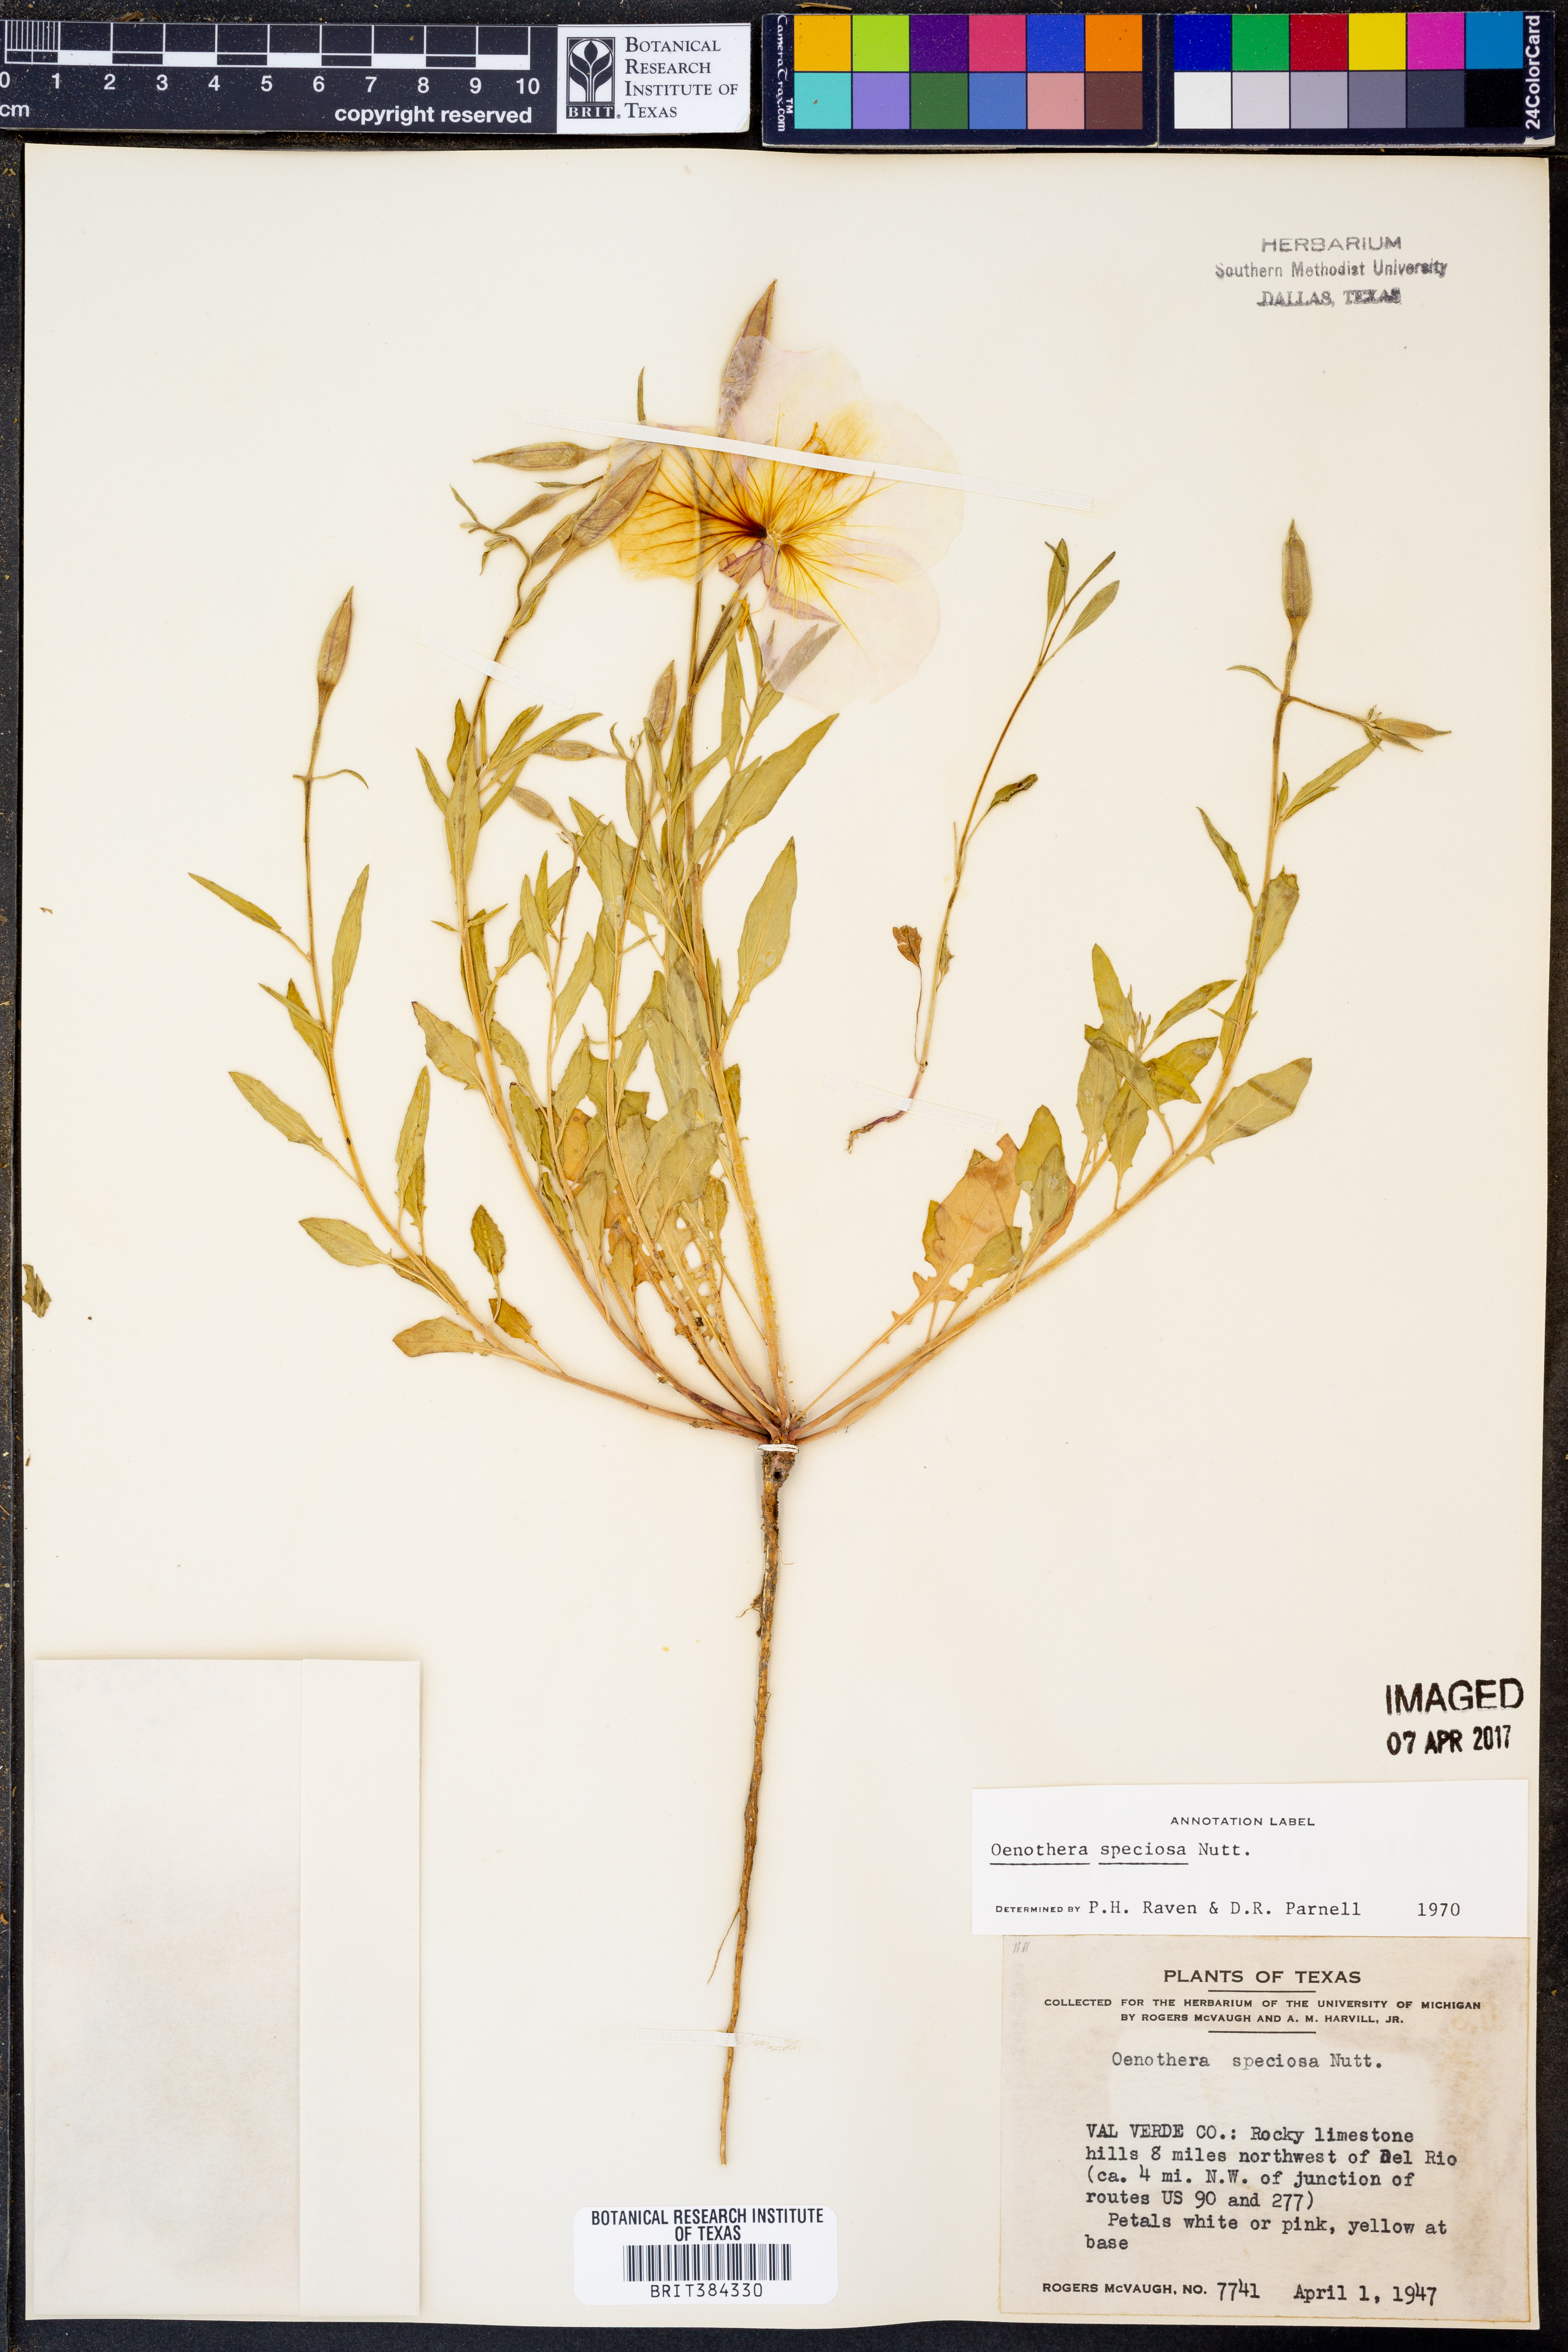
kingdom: Plantae
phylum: Tracheophyta
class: Magnoliopsida
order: Myrtales
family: Onagraceae
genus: Oenothera
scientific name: Oenothera speciosa
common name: White evening-primrose
